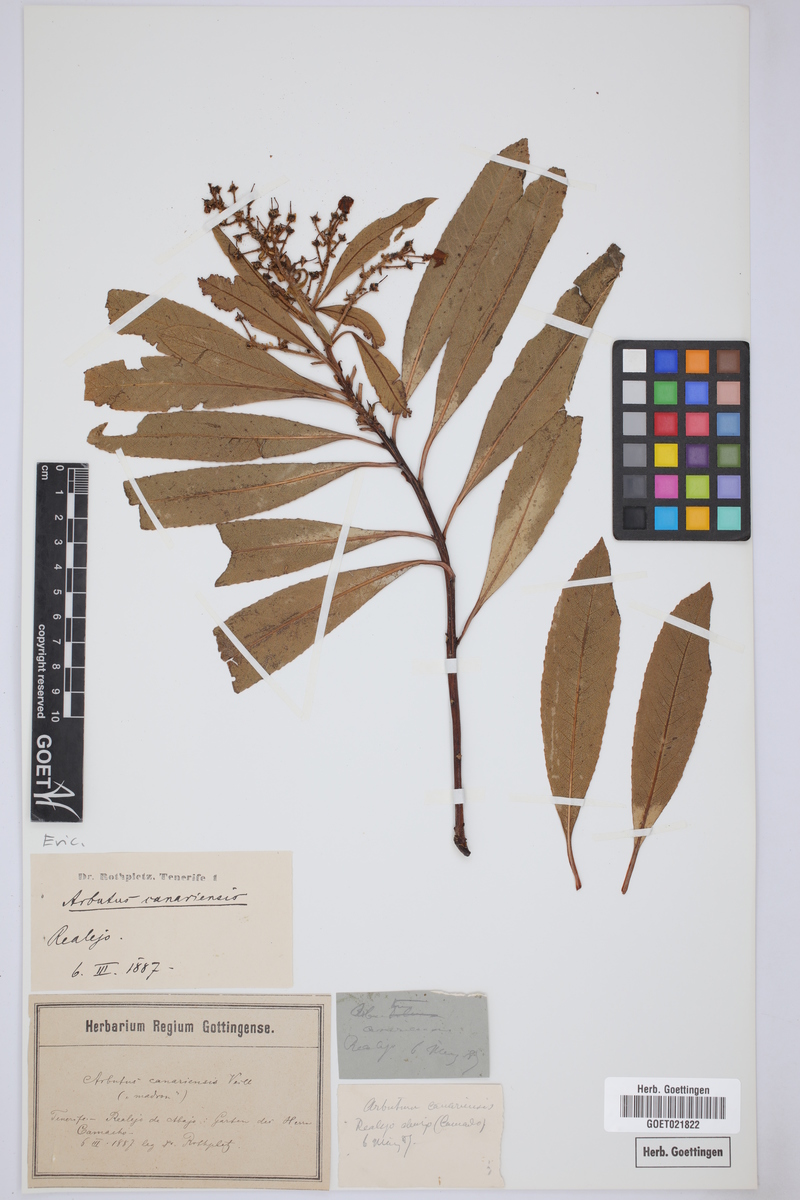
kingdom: Plantae
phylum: Tracheophyta
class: Magnoliopsida
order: Ericales
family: Ericaceae
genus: Arbutus
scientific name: Arbutus canariensis
